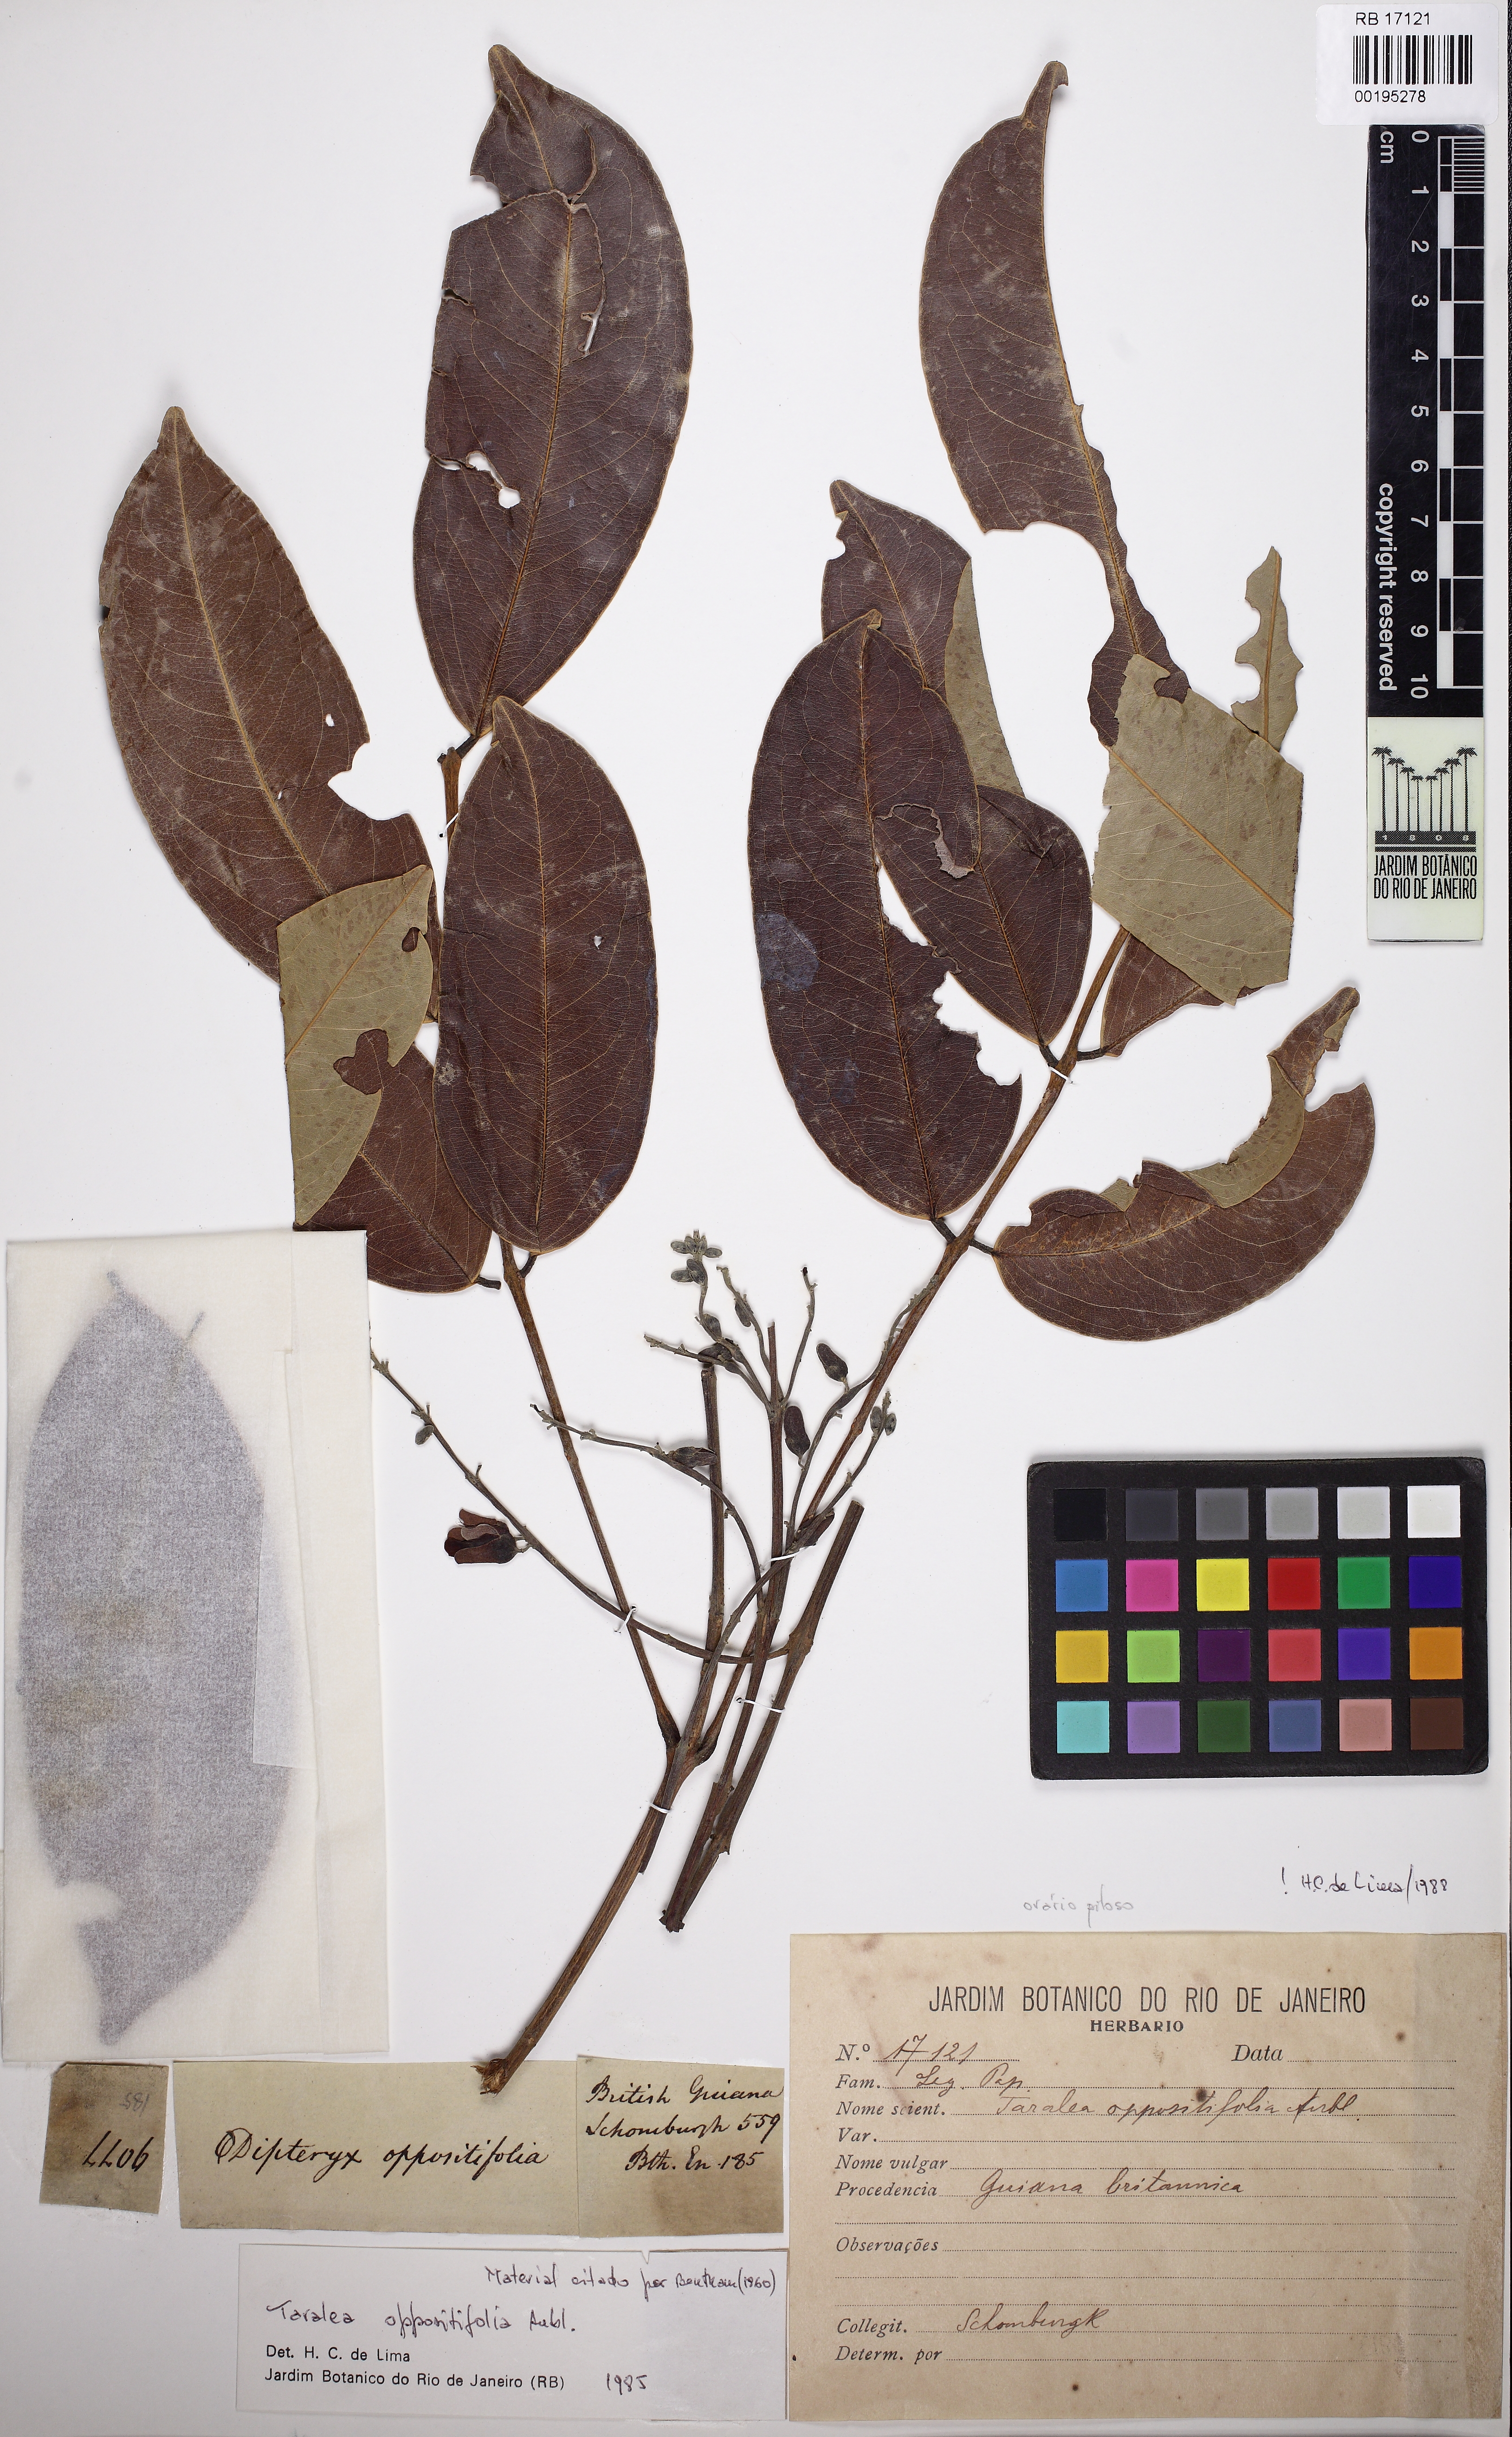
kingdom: Plantae
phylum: Tracheophyta
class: Magnoliopsida
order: Fabales
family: Fabaceae
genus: Taralea
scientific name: Taralea oppositifolia
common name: Tonka
